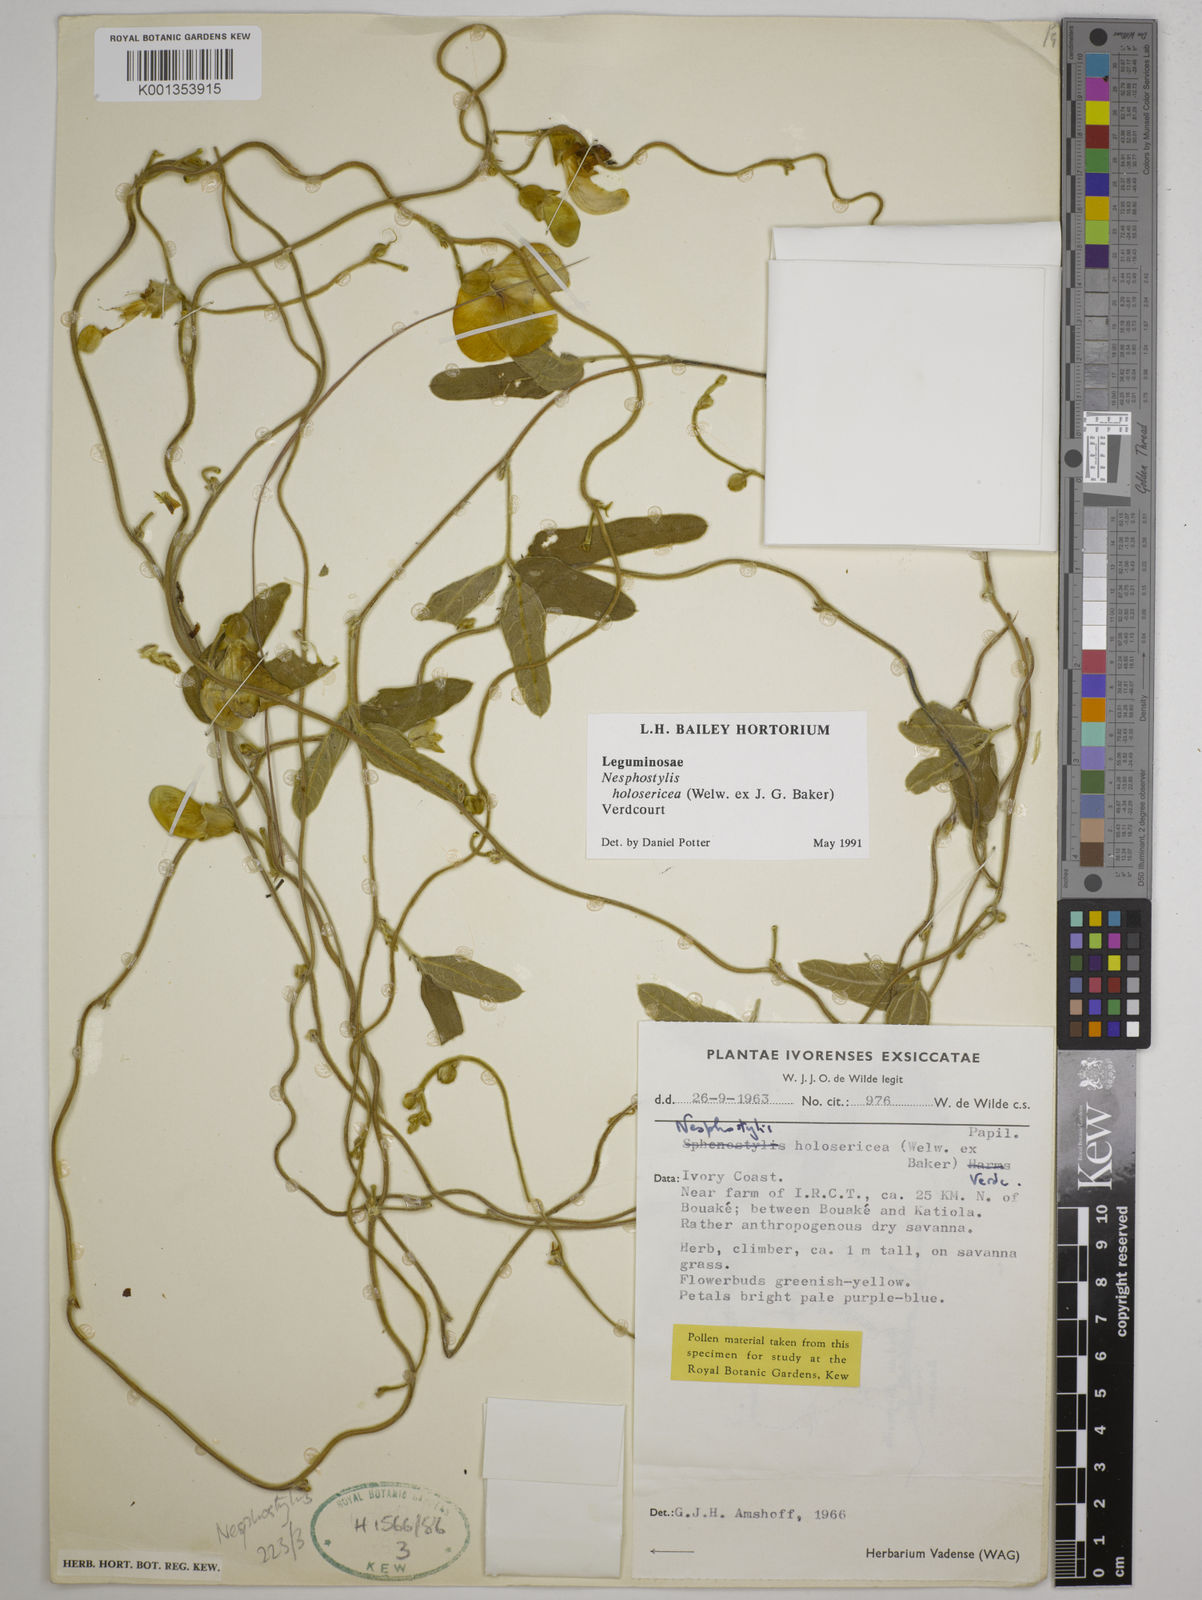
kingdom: Plantae
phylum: Tracheophyta
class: Magnoliopsida
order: Fabales
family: Fabaceae
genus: Nesphostylis
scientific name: Nesphostylis holosericea
